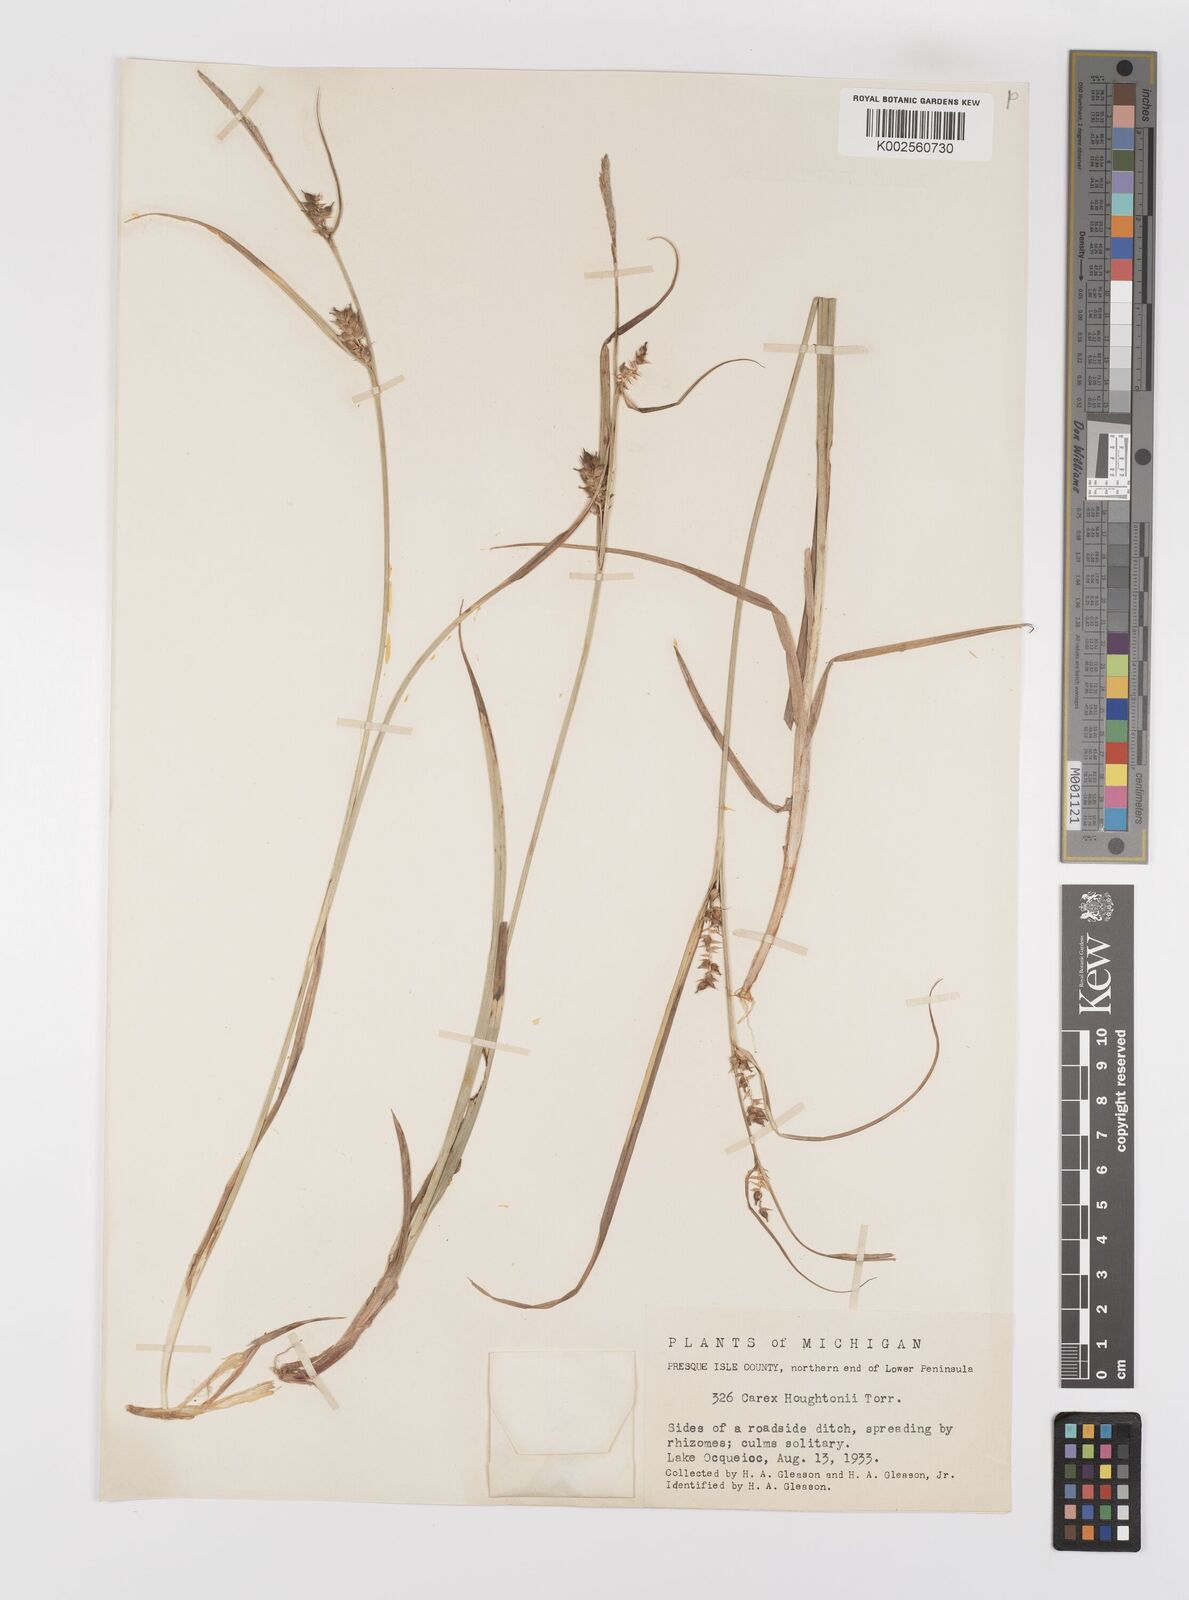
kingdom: Plantae
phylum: Tracheophyta
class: Liliopsida
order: Poales
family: Cyperaceae
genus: Carex
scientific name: Carex houghtoniana
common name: Houghton's sedge
